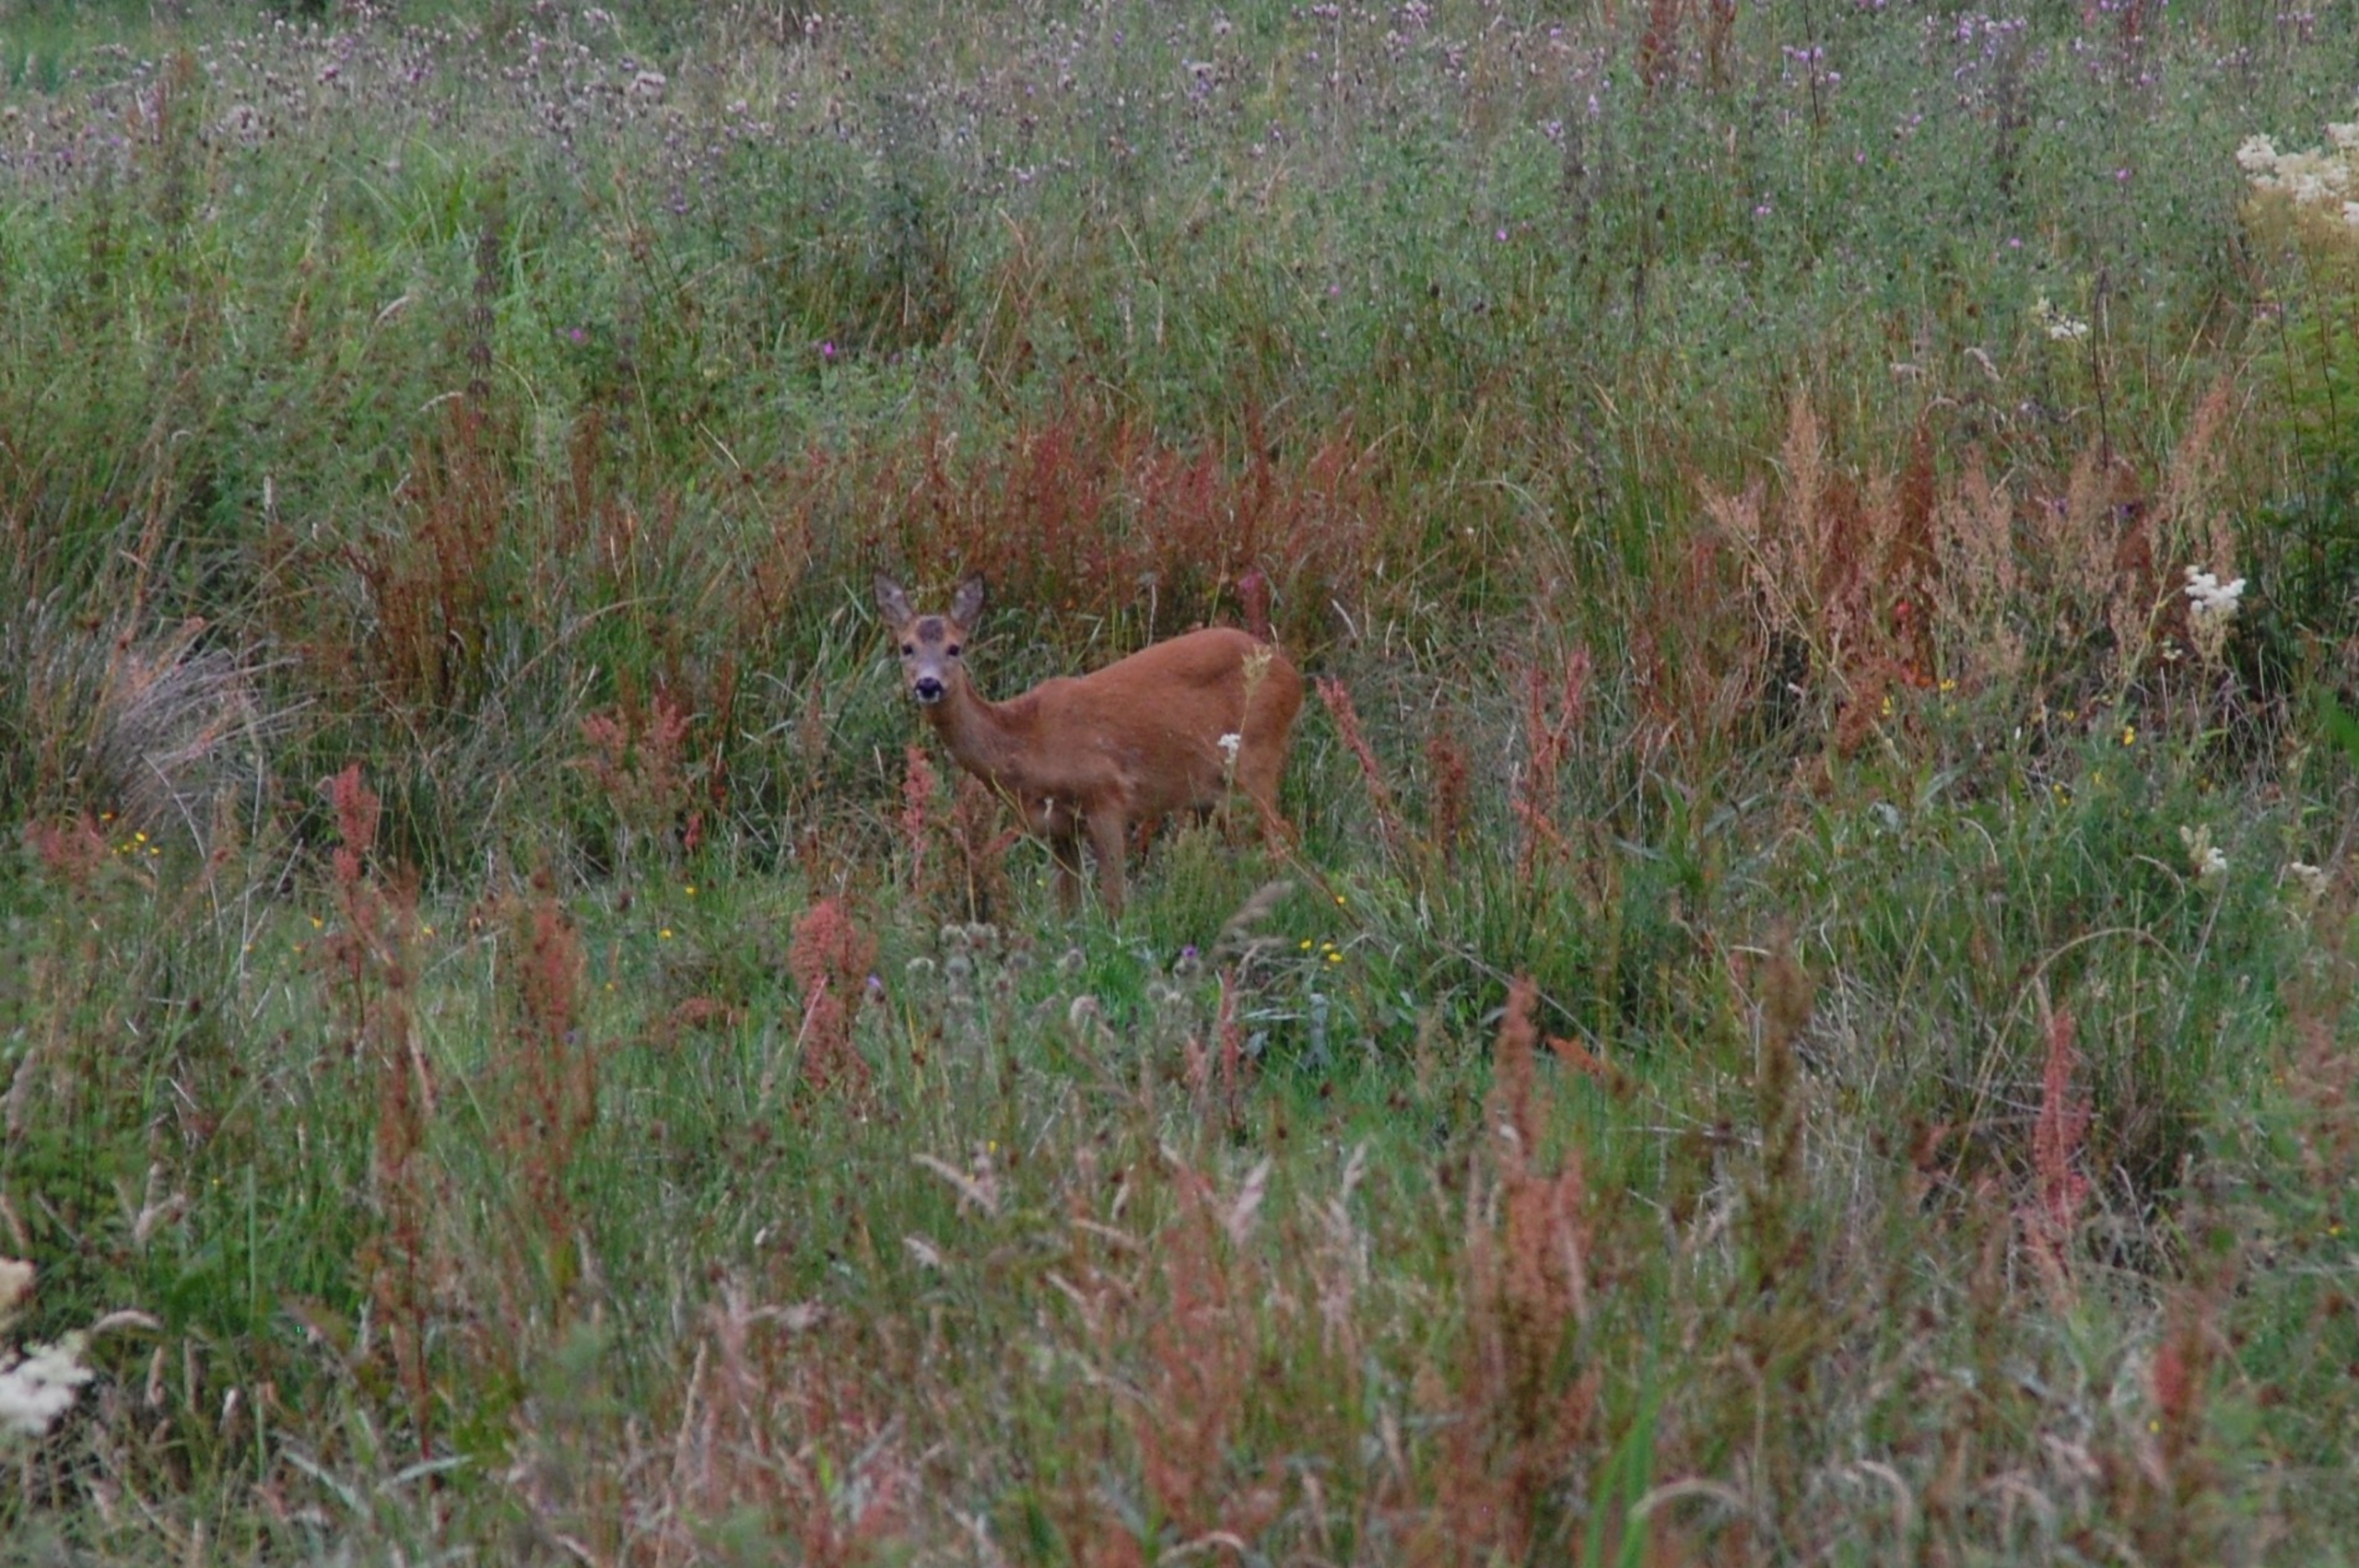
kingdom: Animalia
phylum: Chordata
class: Mammalia
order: Artiodactyla
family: Cervidae
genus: Capreolus
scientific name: Capreolus capreolus
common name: Rådyr
